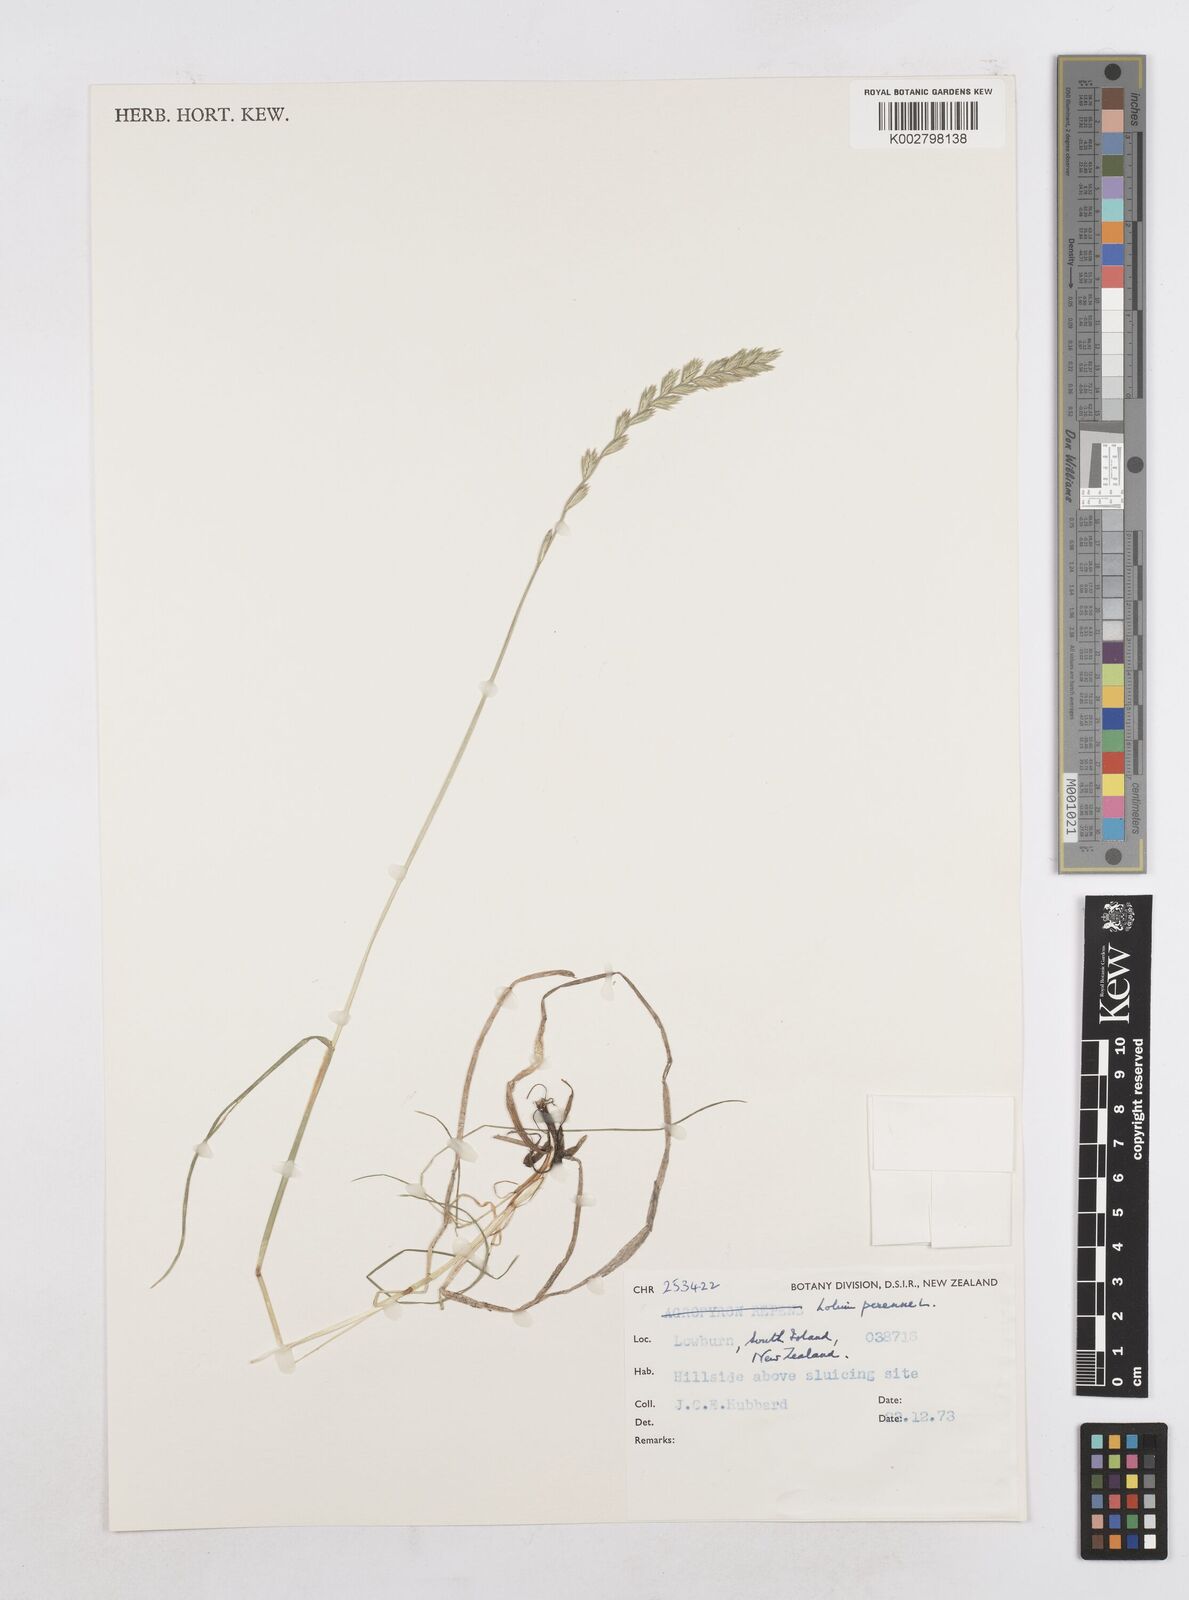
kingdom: Plantae
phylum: Tracheophyta
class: Liliopsida
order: Poales
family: Poaceae
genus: Lolium
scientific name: Lolium perenne
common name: Perennial ryegrass
